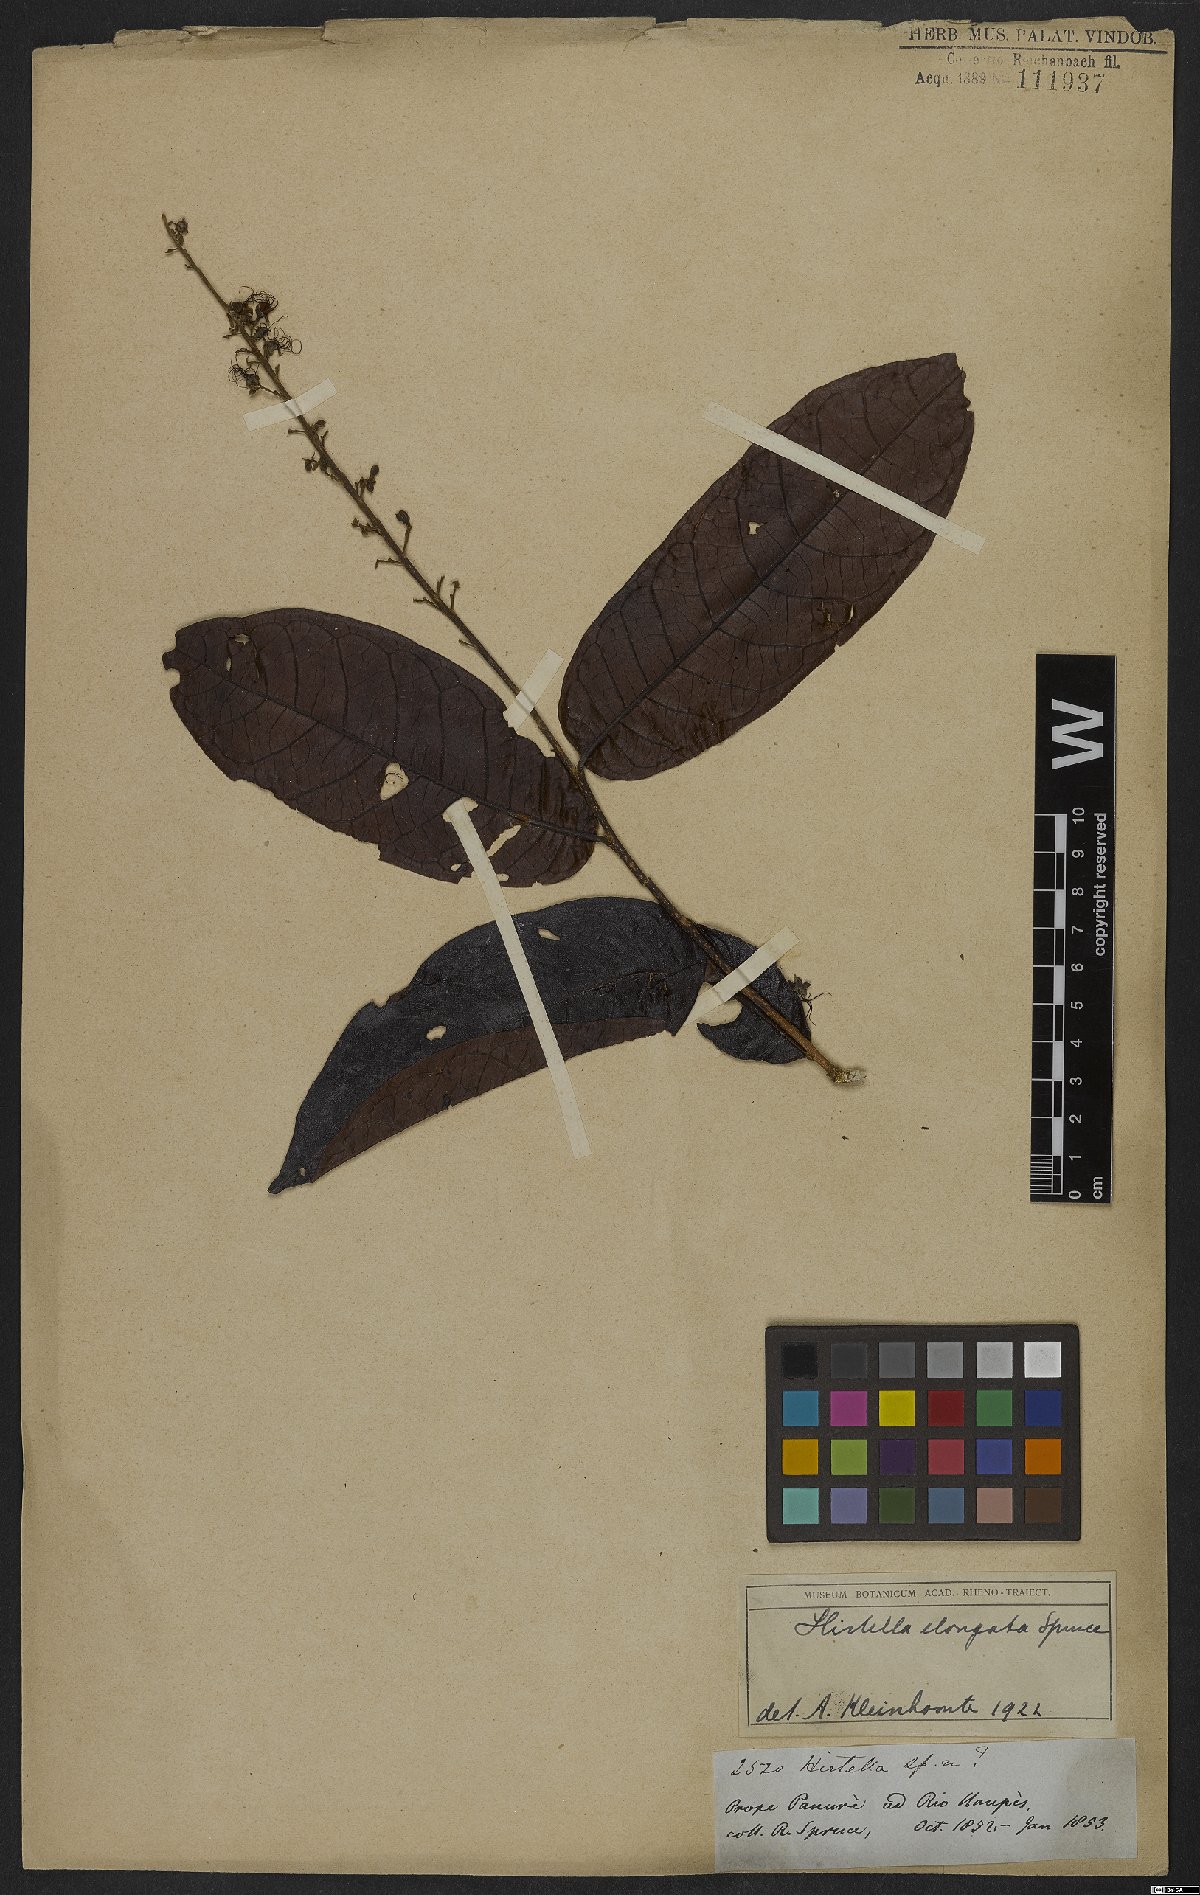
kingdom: Plantae
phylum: Tracheophyta
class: Magnoliopsida
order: Malpighiales
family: Chrysobalanaceae
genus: Hirtella
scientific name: Hirtella elongata
